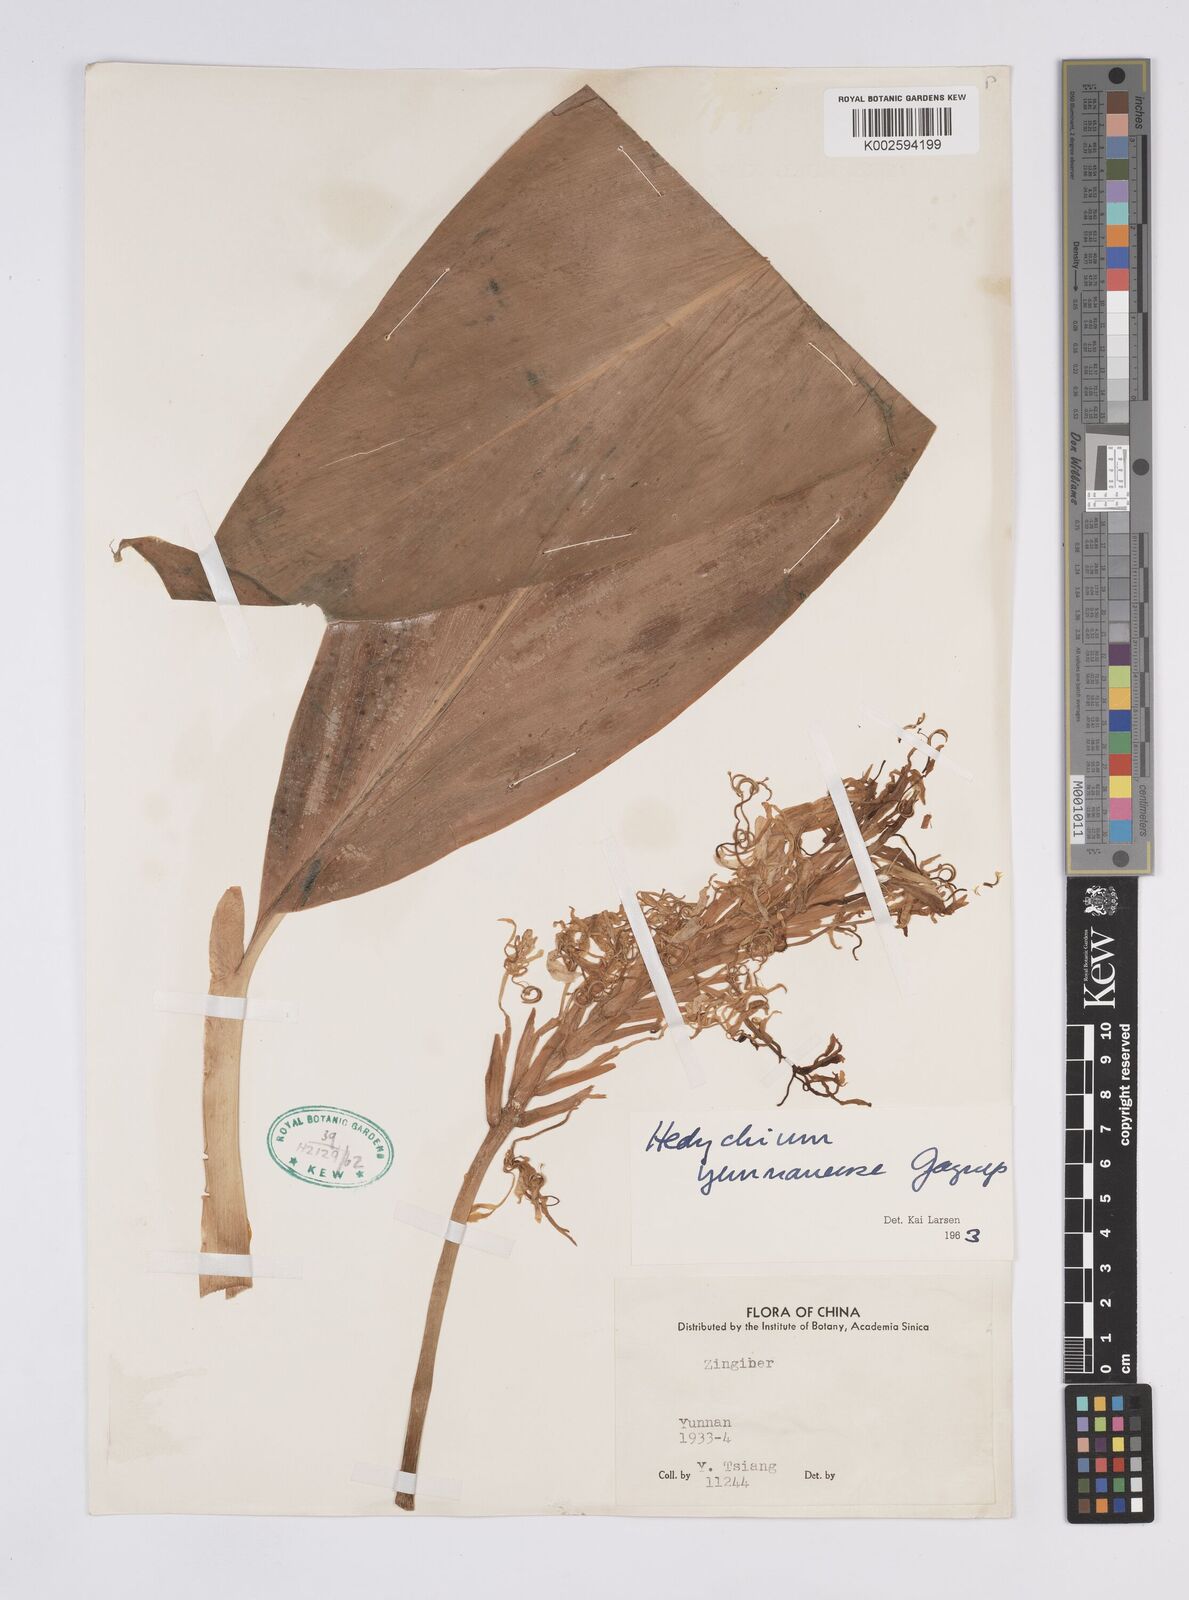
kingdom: Plantae
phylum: Tracheophyta
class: Liliopsida
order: Zingiberales
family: Zingiberaceae
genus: Hedychium
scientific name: Hedychium yunnanense
